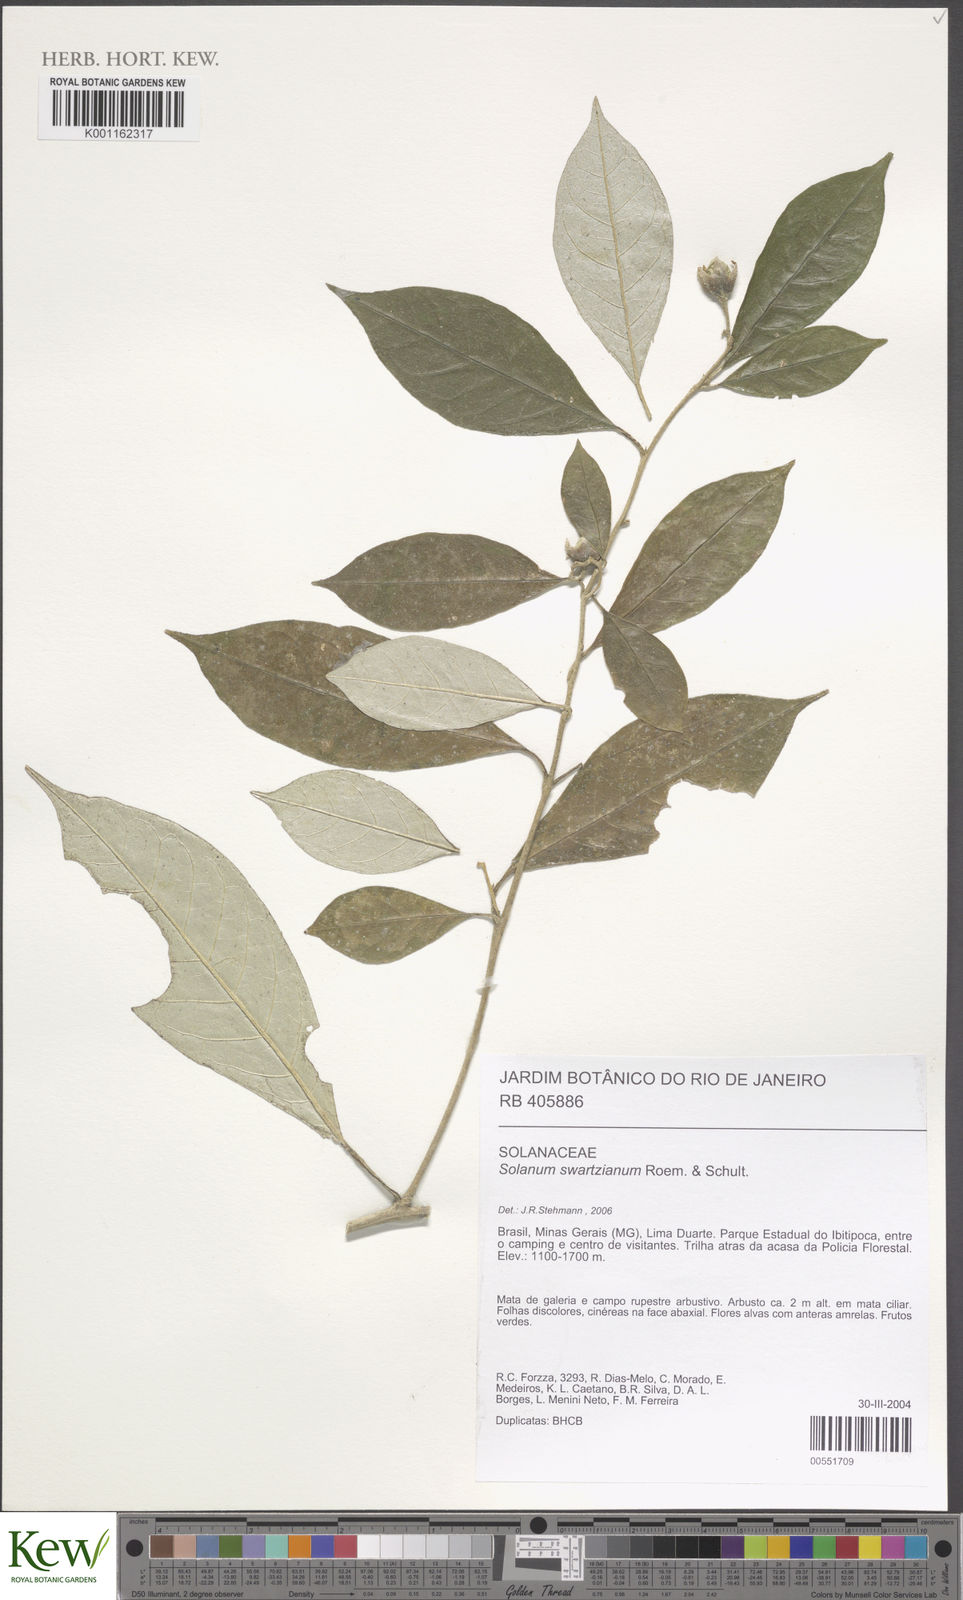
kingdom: Plantae
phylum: Tracheophyta
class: Magnoliopsida
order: Solanales
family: Solanaceae
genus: Solanum
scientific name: Solanum swartzianum
